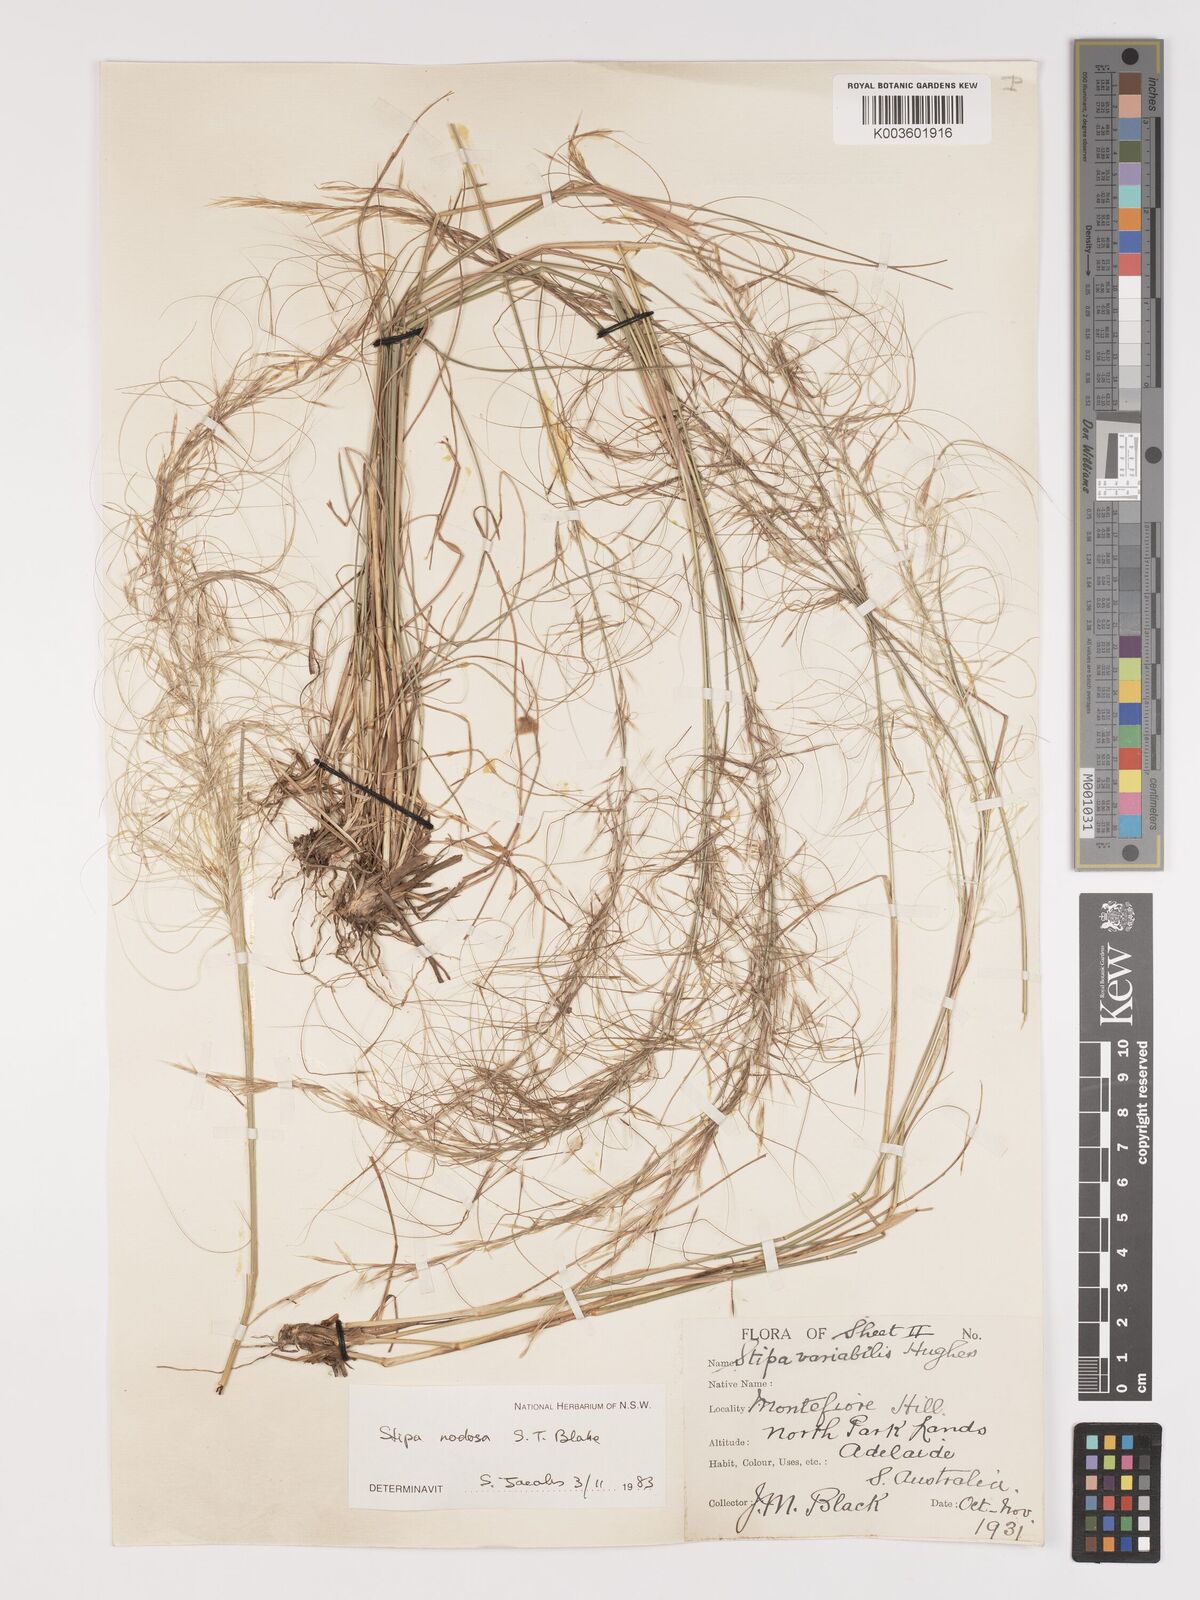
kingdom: Plantae
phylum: Tracheophyta
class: Liliopsida
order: Poales
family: Poaceae
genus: Austrostipa
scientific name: Austrostipa nodosa
